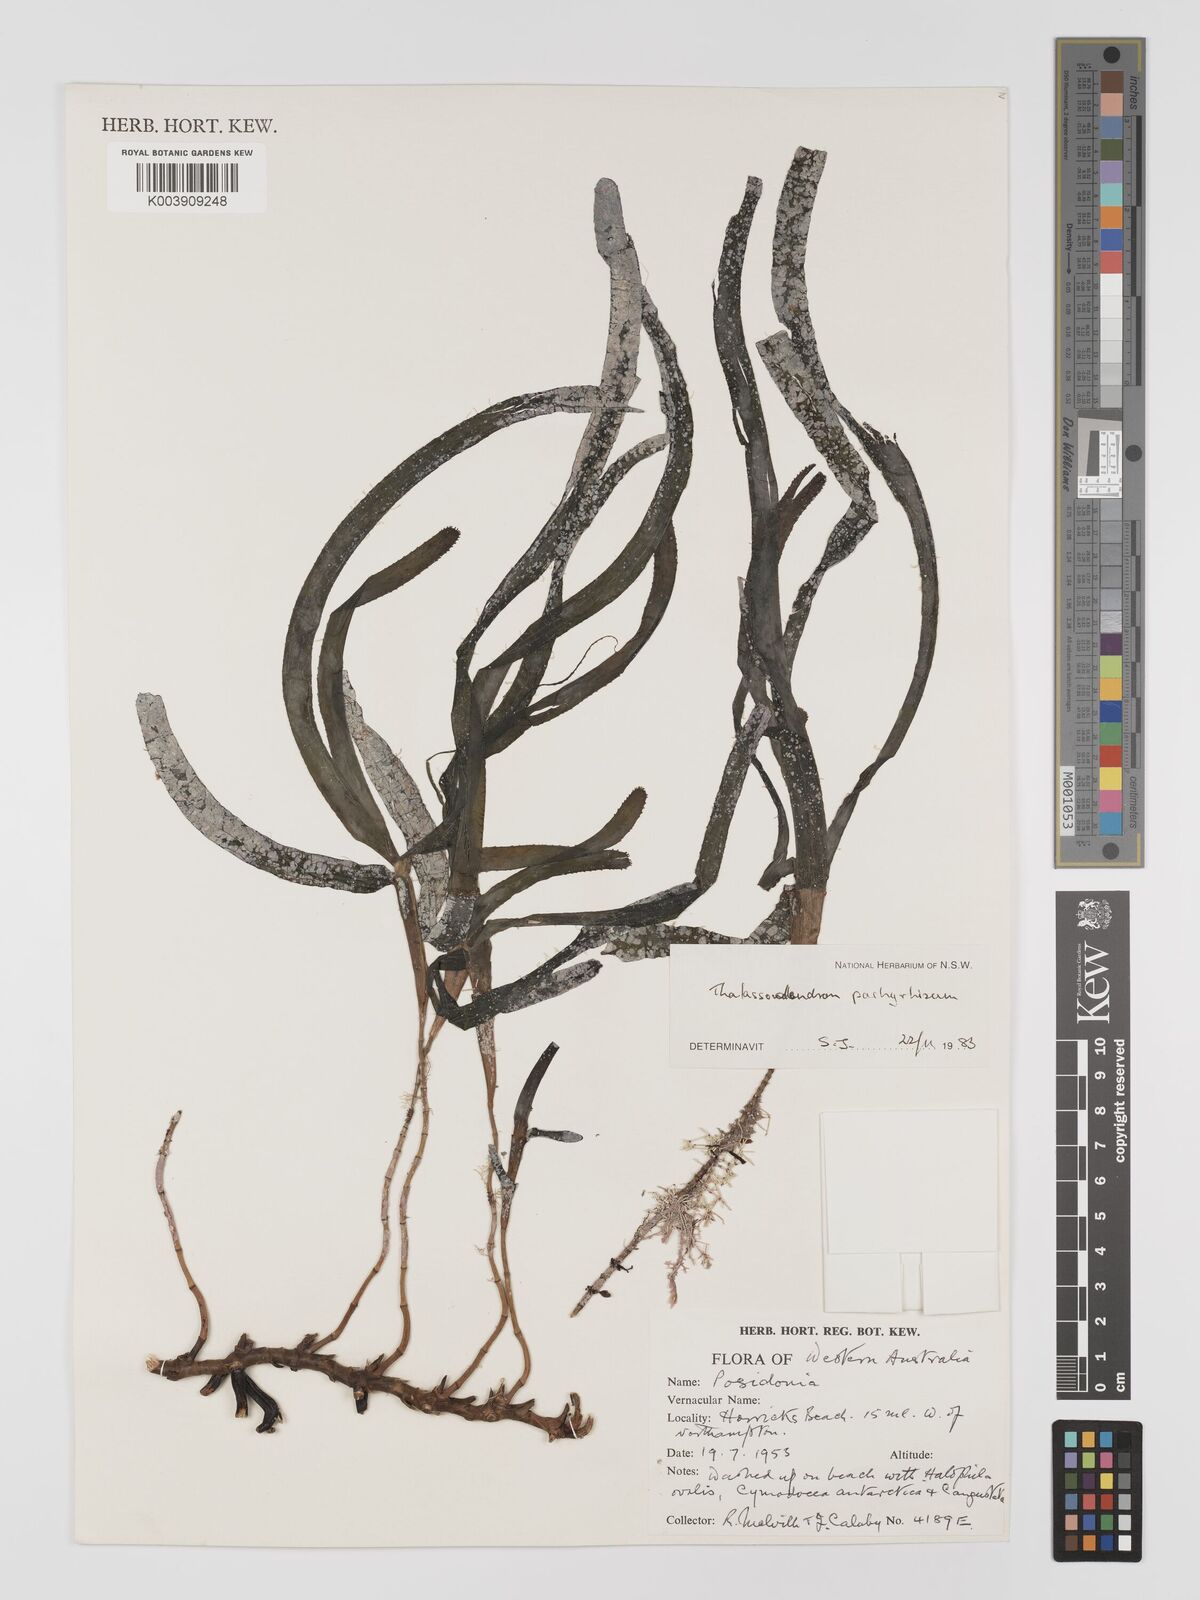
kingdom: Plantae
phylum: Tracheophyta
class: Liliopsida
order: Alismatales
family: Cymodoceaceae
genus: Thalassodendron
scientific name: Thalassodendron pachyrhizum
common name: Species code: tp
